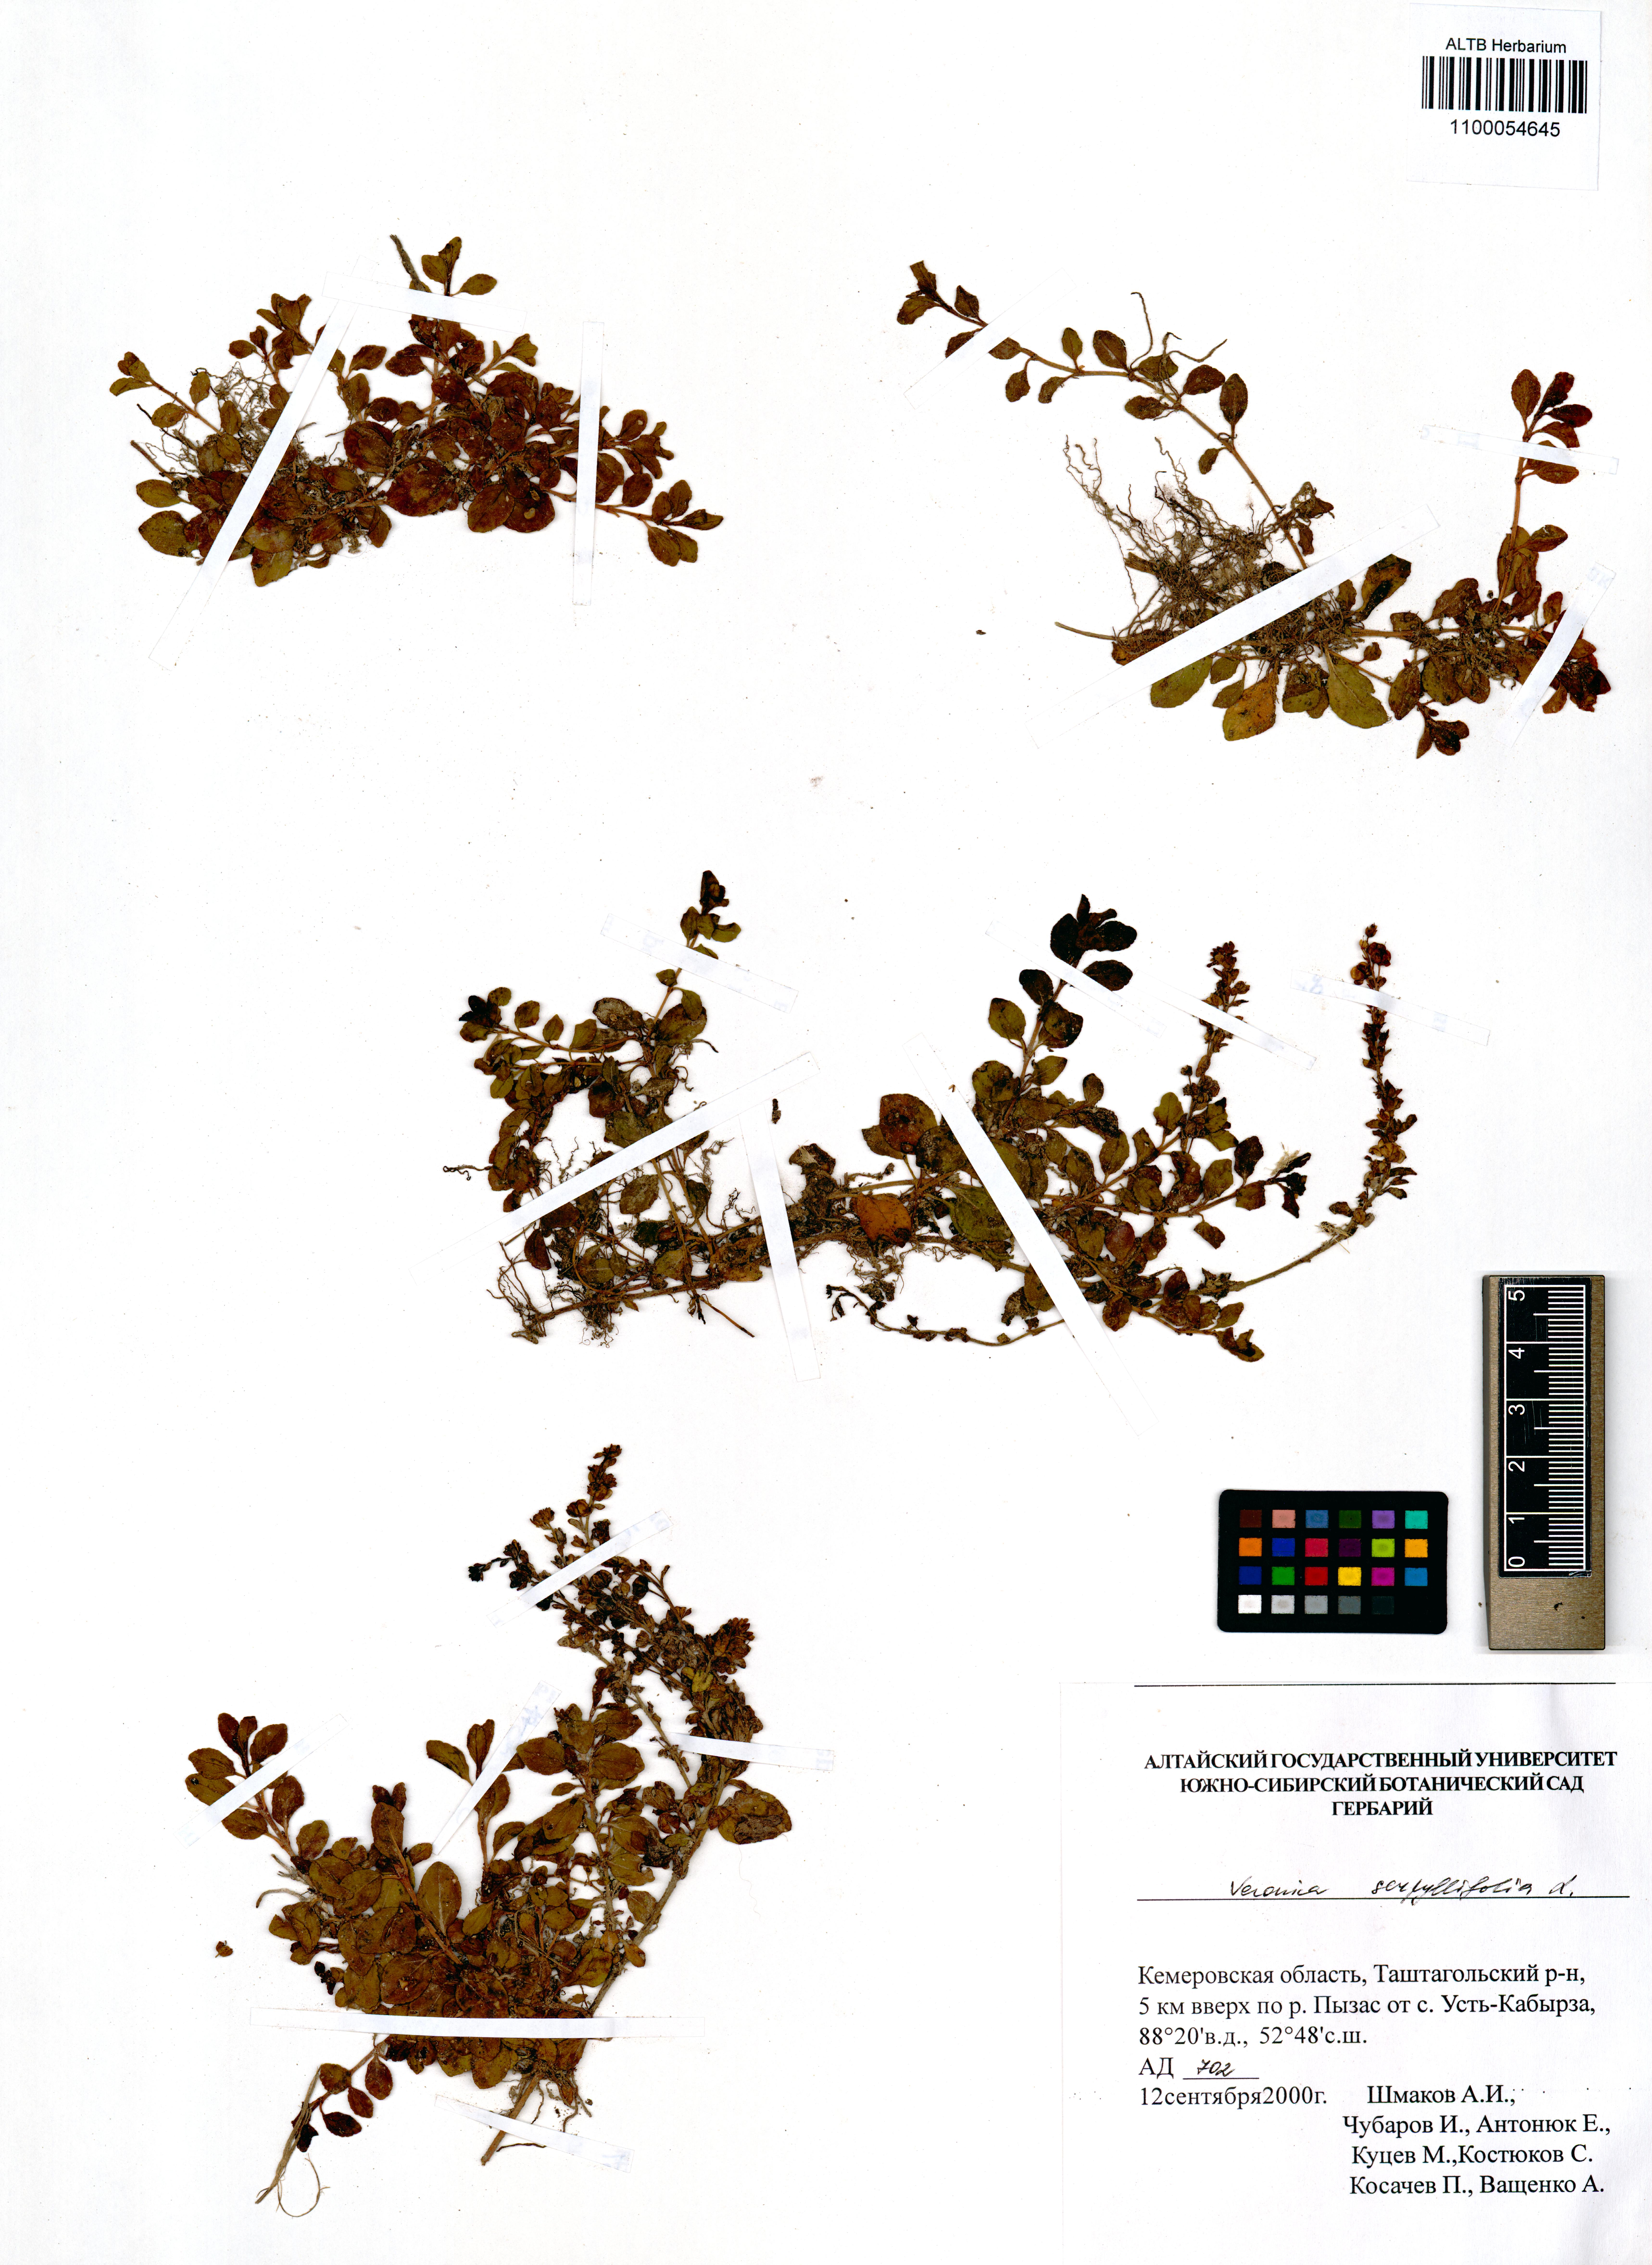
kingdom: Plantae
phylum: Tracheophyta
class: Magnoliopsida
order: Lamiales
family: Plantaginaceae
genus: Veronica
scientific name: Veronica serpyllifolia
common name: Thyme-leaved speedwell
